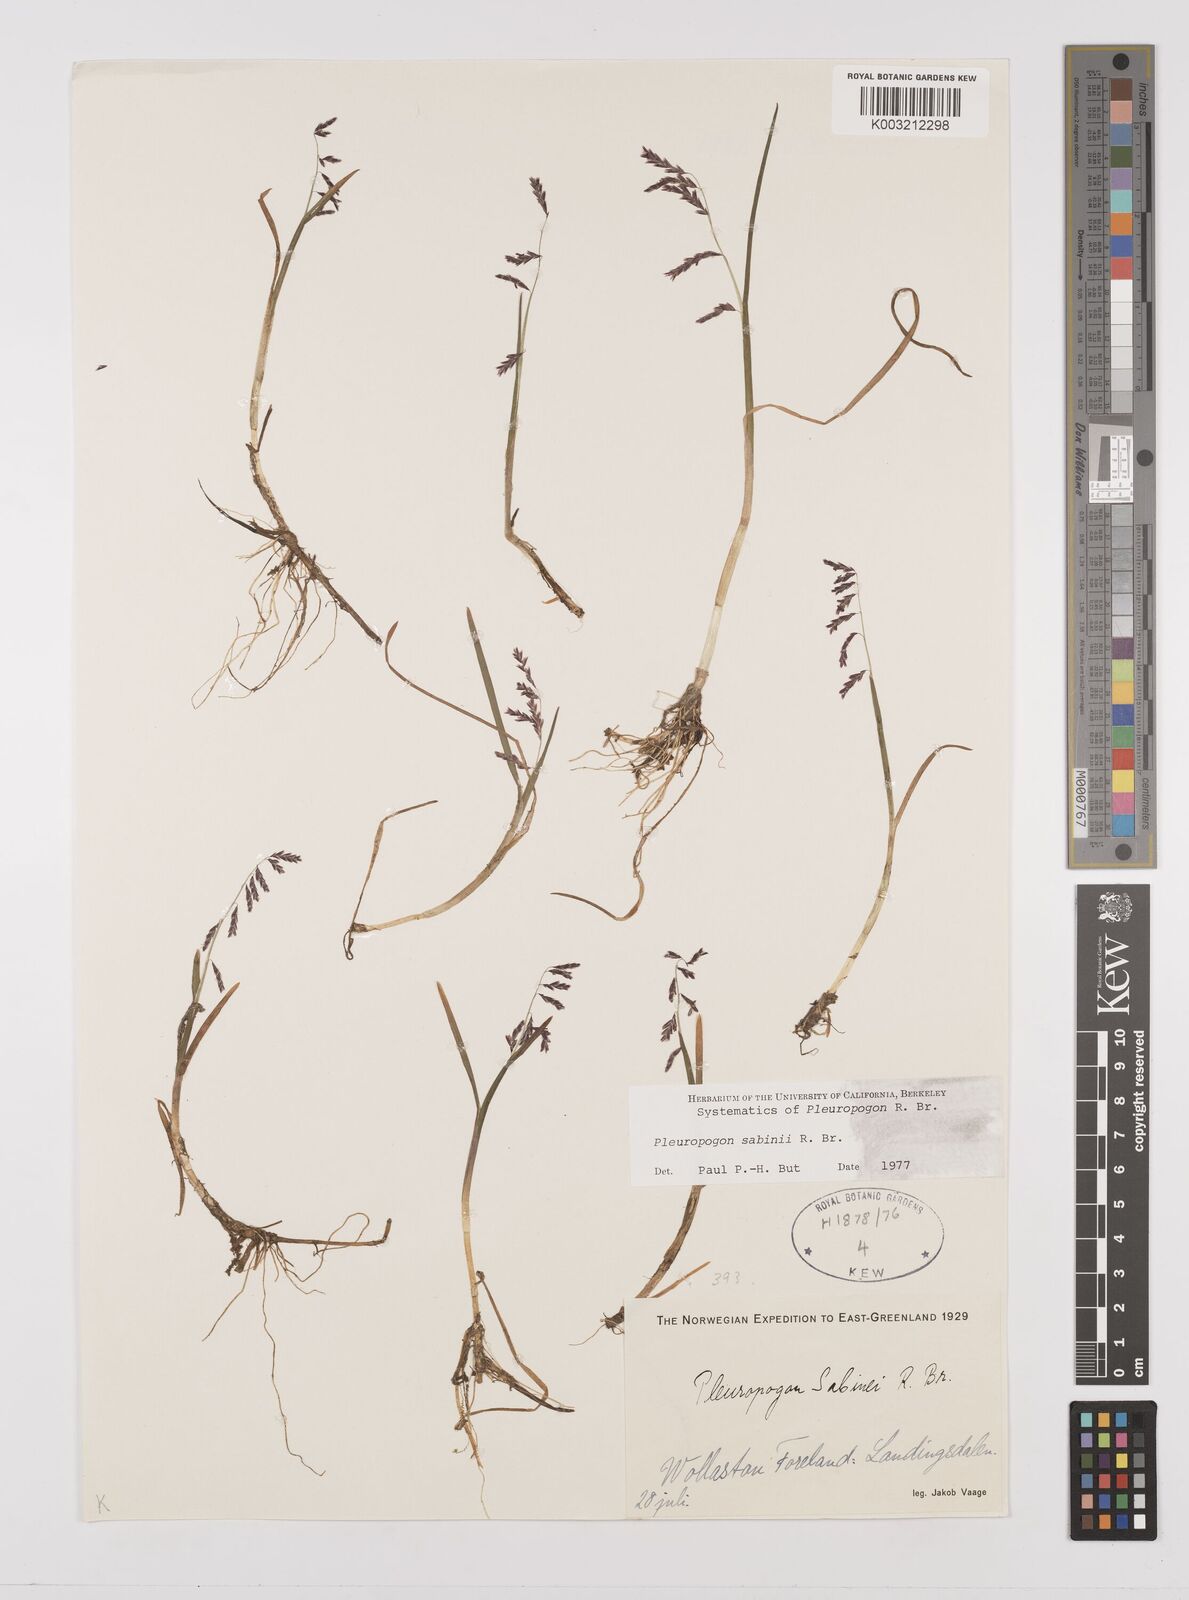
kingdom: Plantae
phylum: Tracheophyta
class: Liliopsida
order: Poales
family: Poaceae
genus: Pleuropogon
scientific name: Pleuropogon sabinei
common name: Sabine's false semaphoregrass
